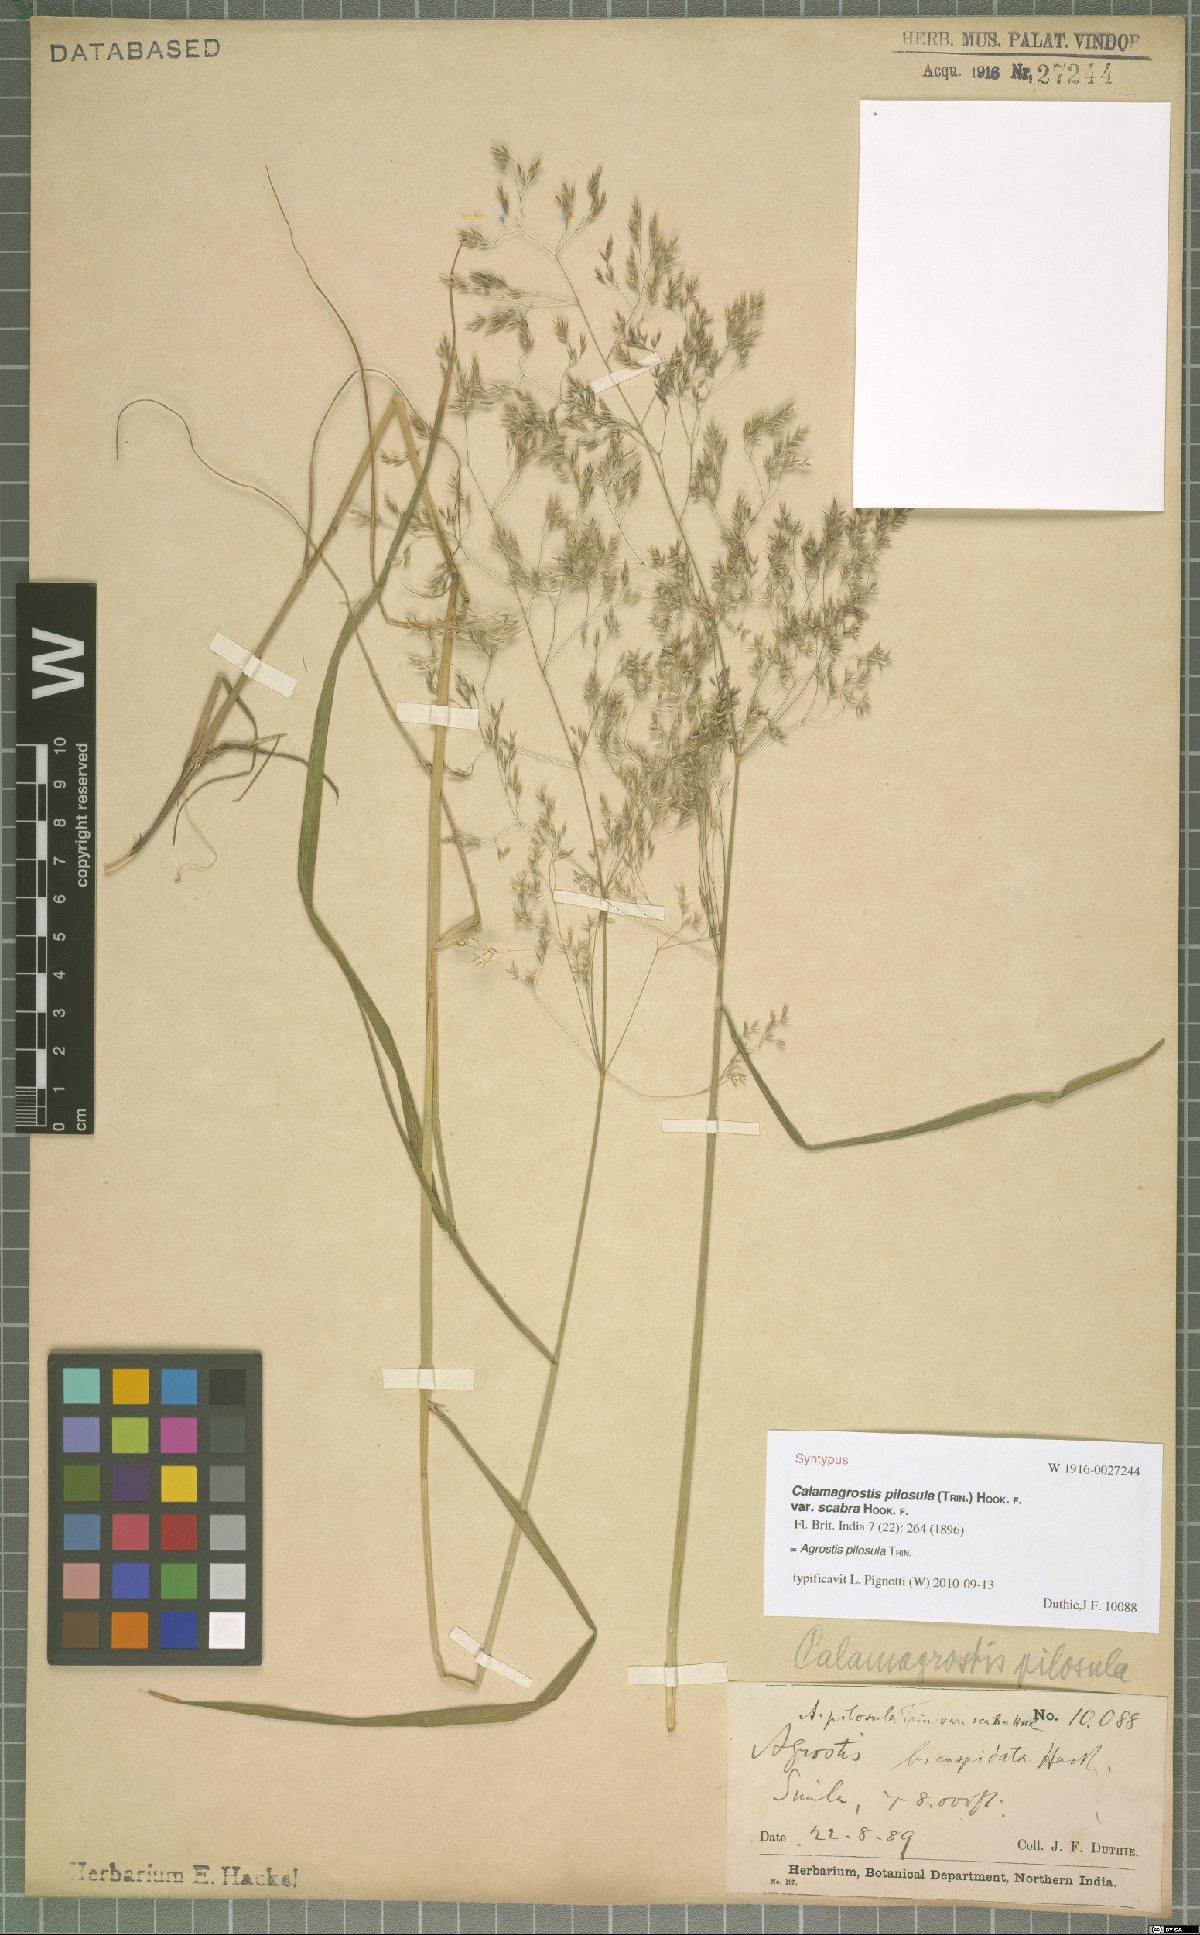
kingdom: Plantae
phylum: Tracheophyta
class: Liliopsida
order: Poales
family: Poaceae
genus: Agrostis
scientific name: Agrostis pilosula
